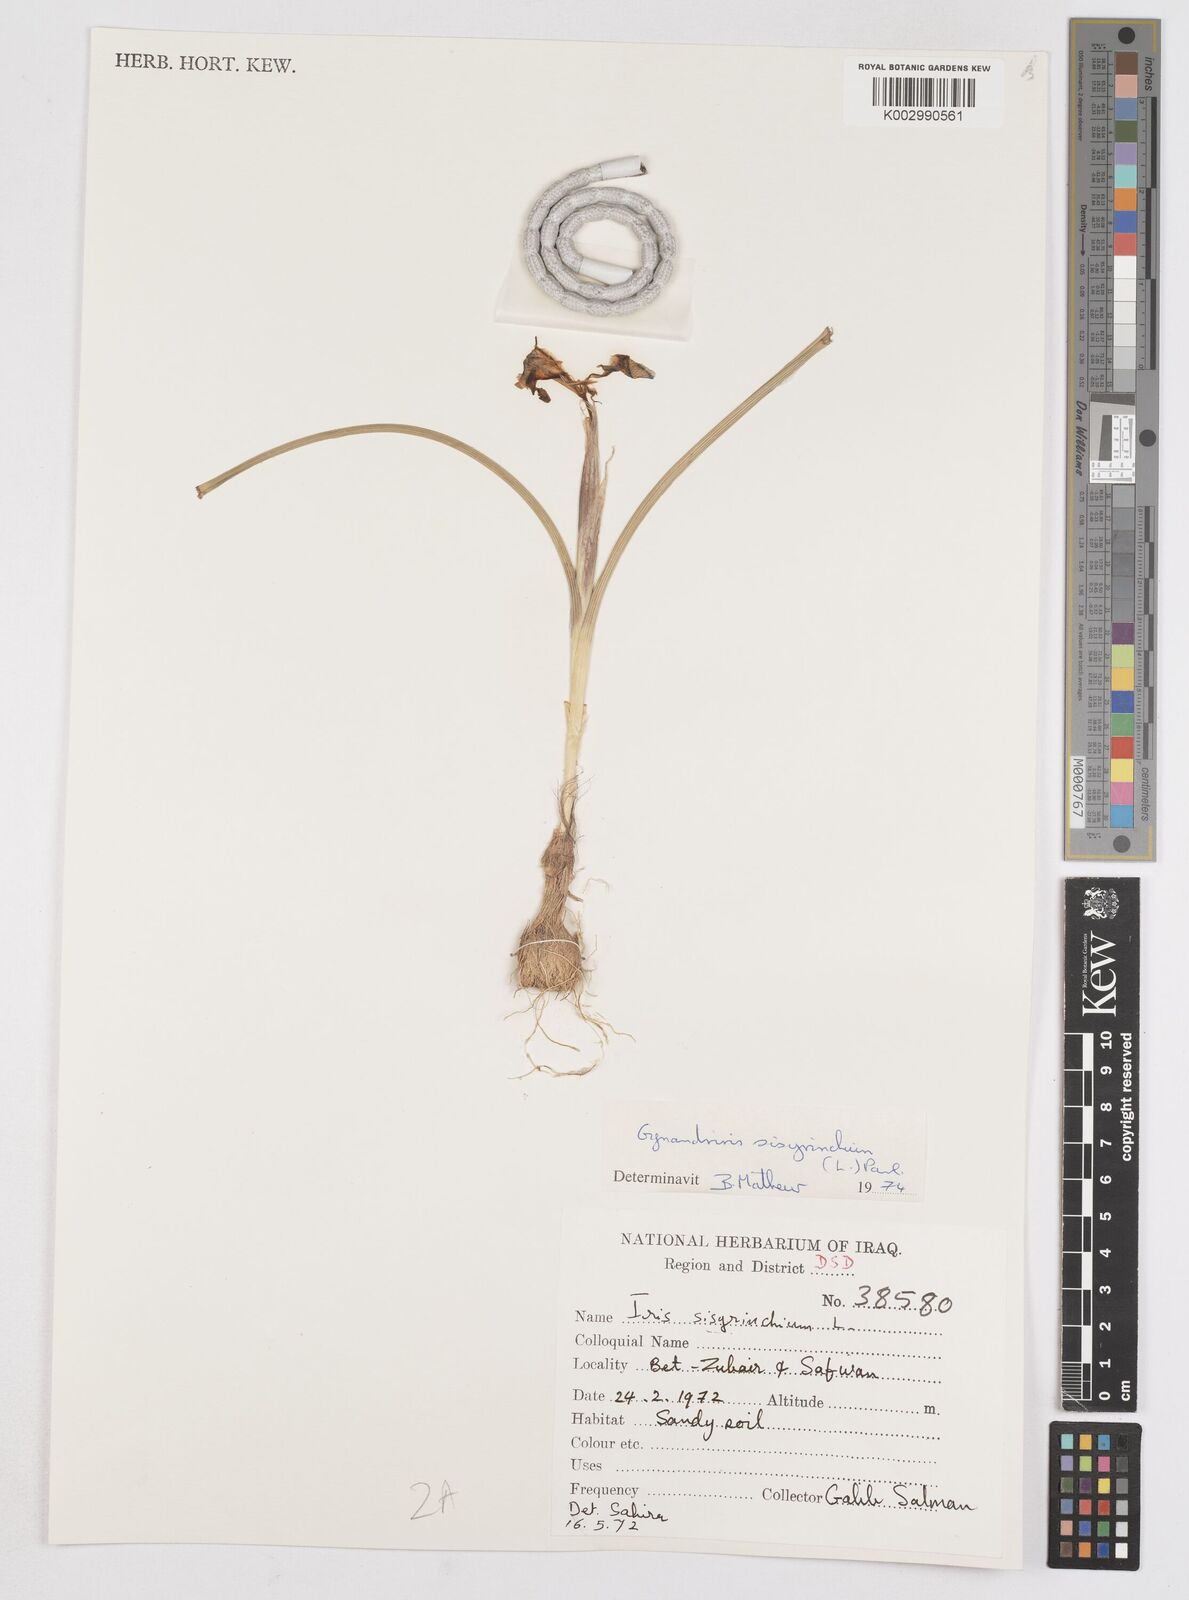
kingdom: Plantae
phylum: Tracheophyta
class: Liliopsida
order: Asparagales
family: Iridaceae
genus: Moraea
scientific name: Moraea sisyrinchium
